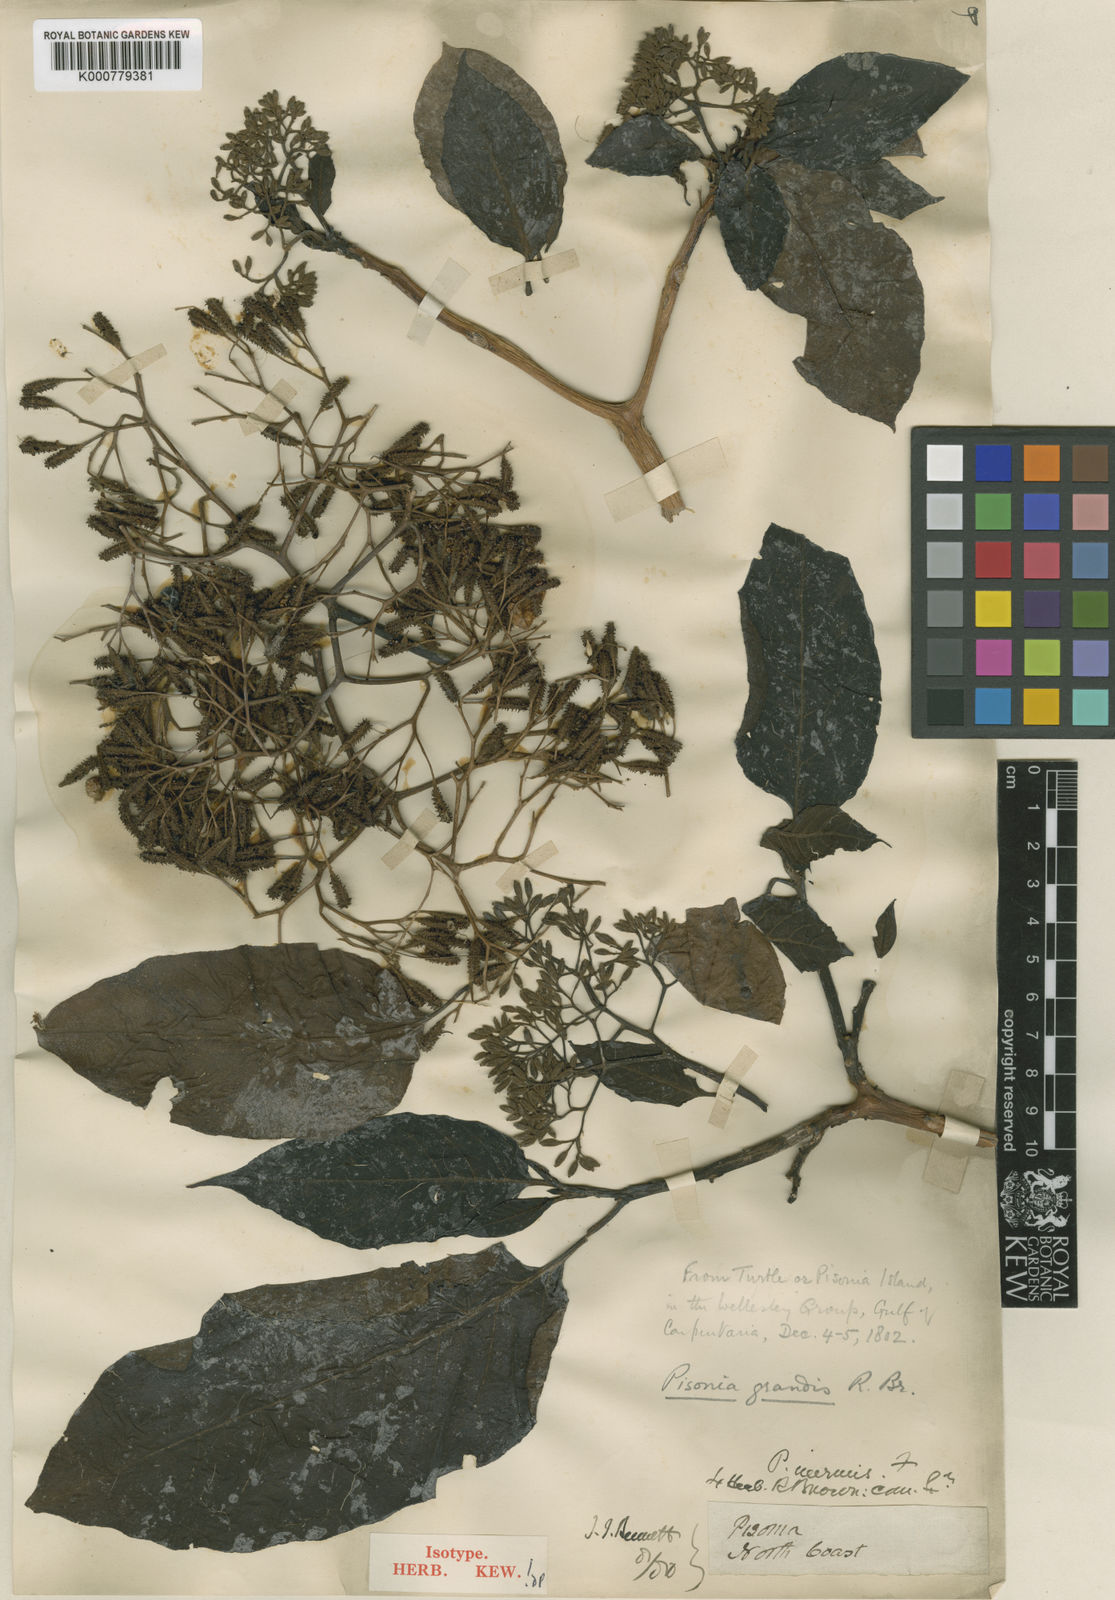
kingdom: Plantae
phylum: Tracheophyta
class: Magnoliopsida
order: Caryophyllales
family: Nyctaginaceae
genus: Ceodes
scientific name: Ceodes grandis
